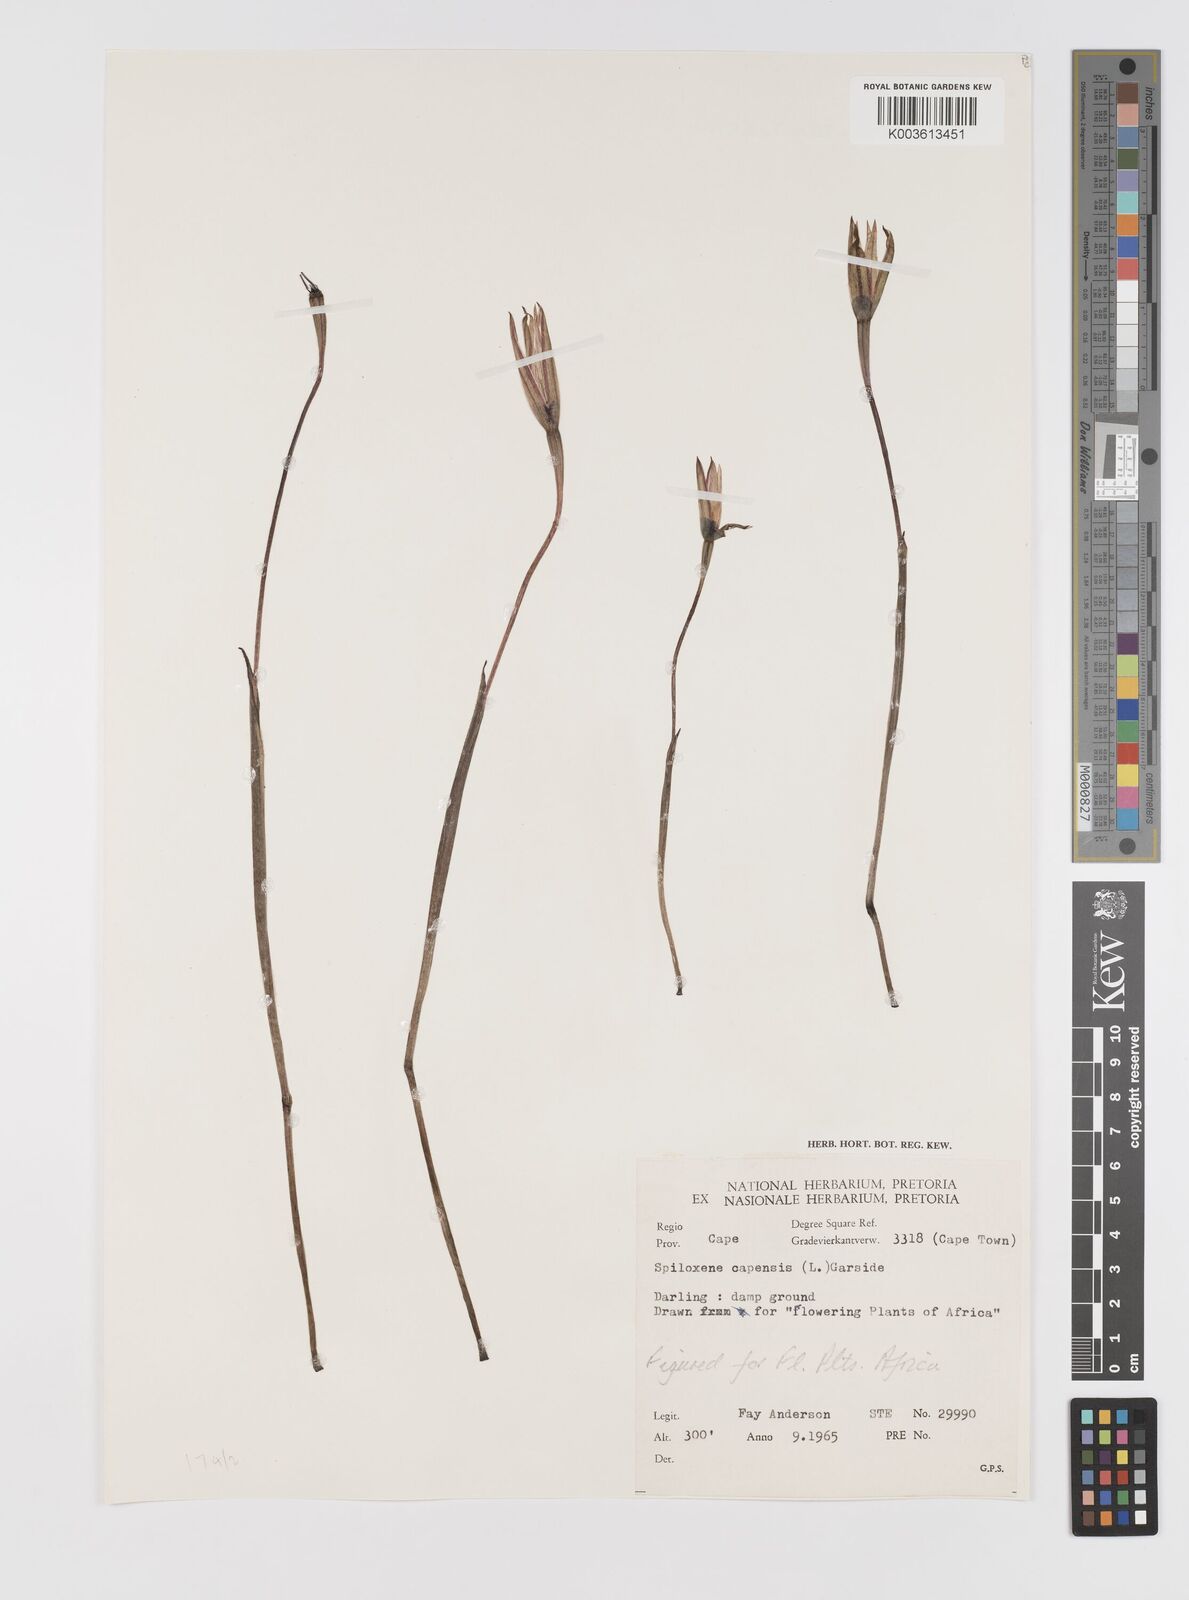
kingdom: Plantae
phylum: Tracheophyta
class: Liliopsida
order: Asparagales
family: Hypoxidaceae
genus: Pauridia
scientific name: Pauridia capensis
